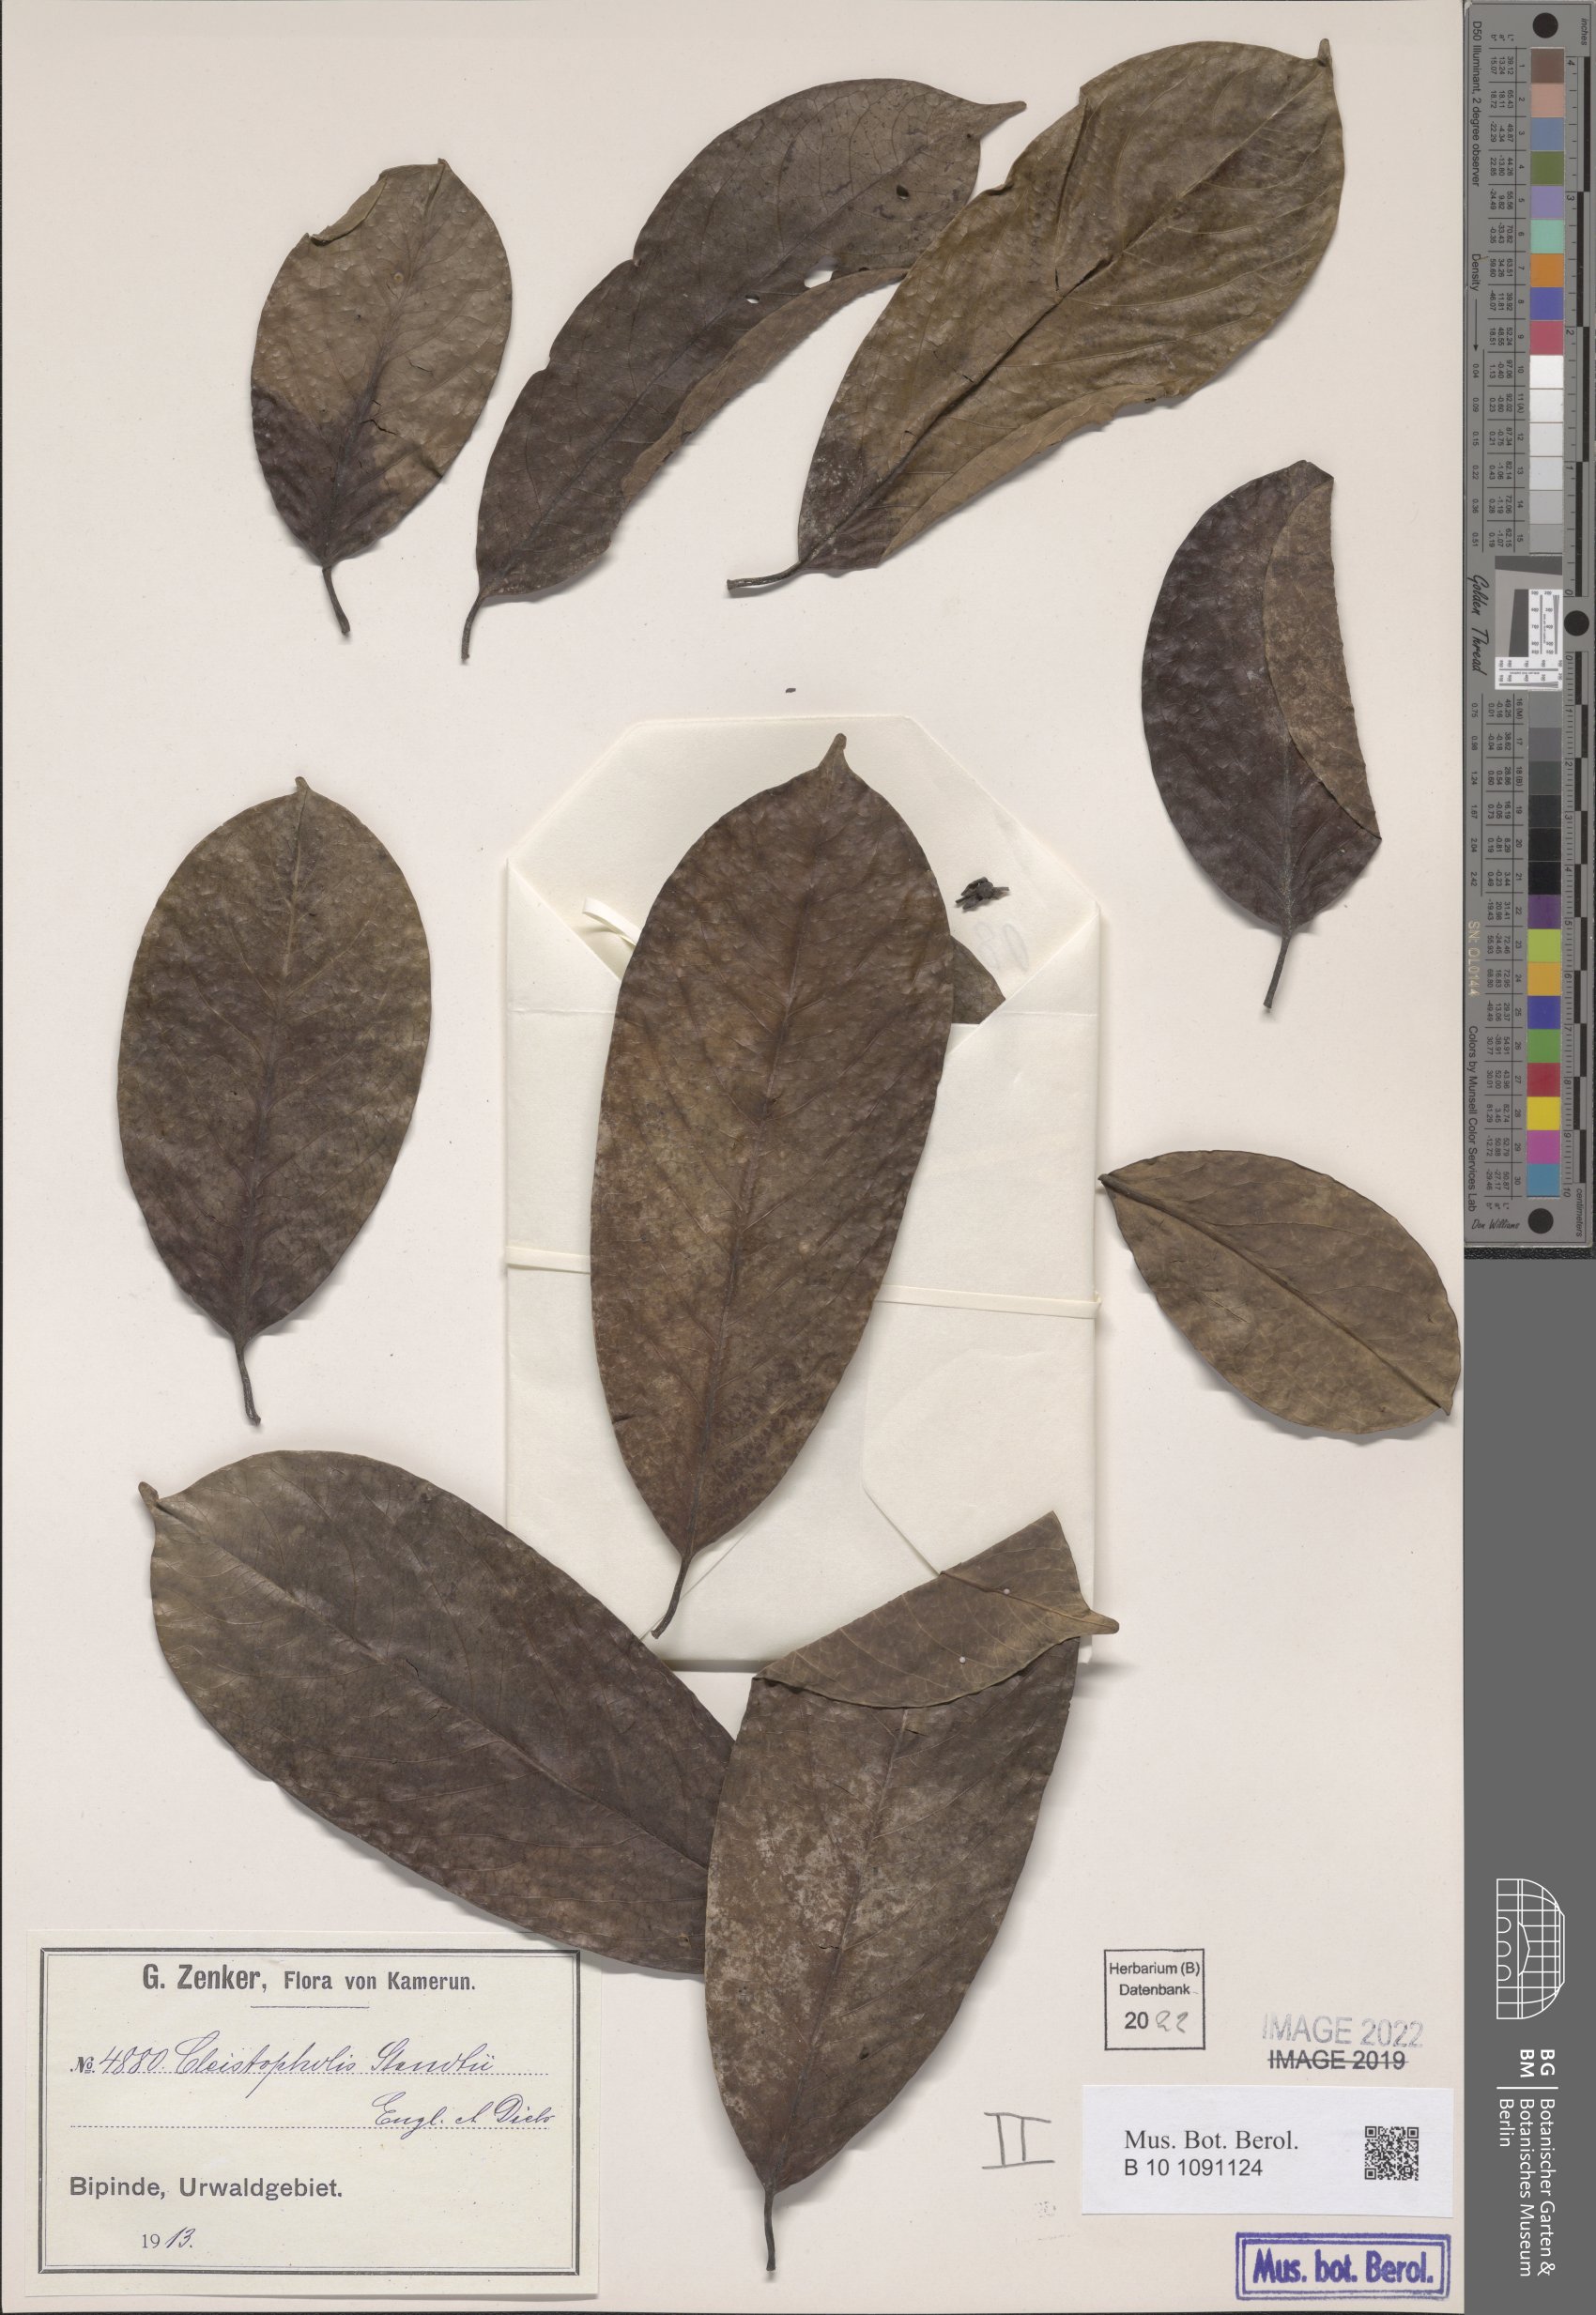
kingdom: Plantae
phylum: Tracheophyta
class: Magnoliopsida
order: Magnoliales
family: Annonaceae
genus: Cleistopholis
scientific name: Cleistopholis staudtii
